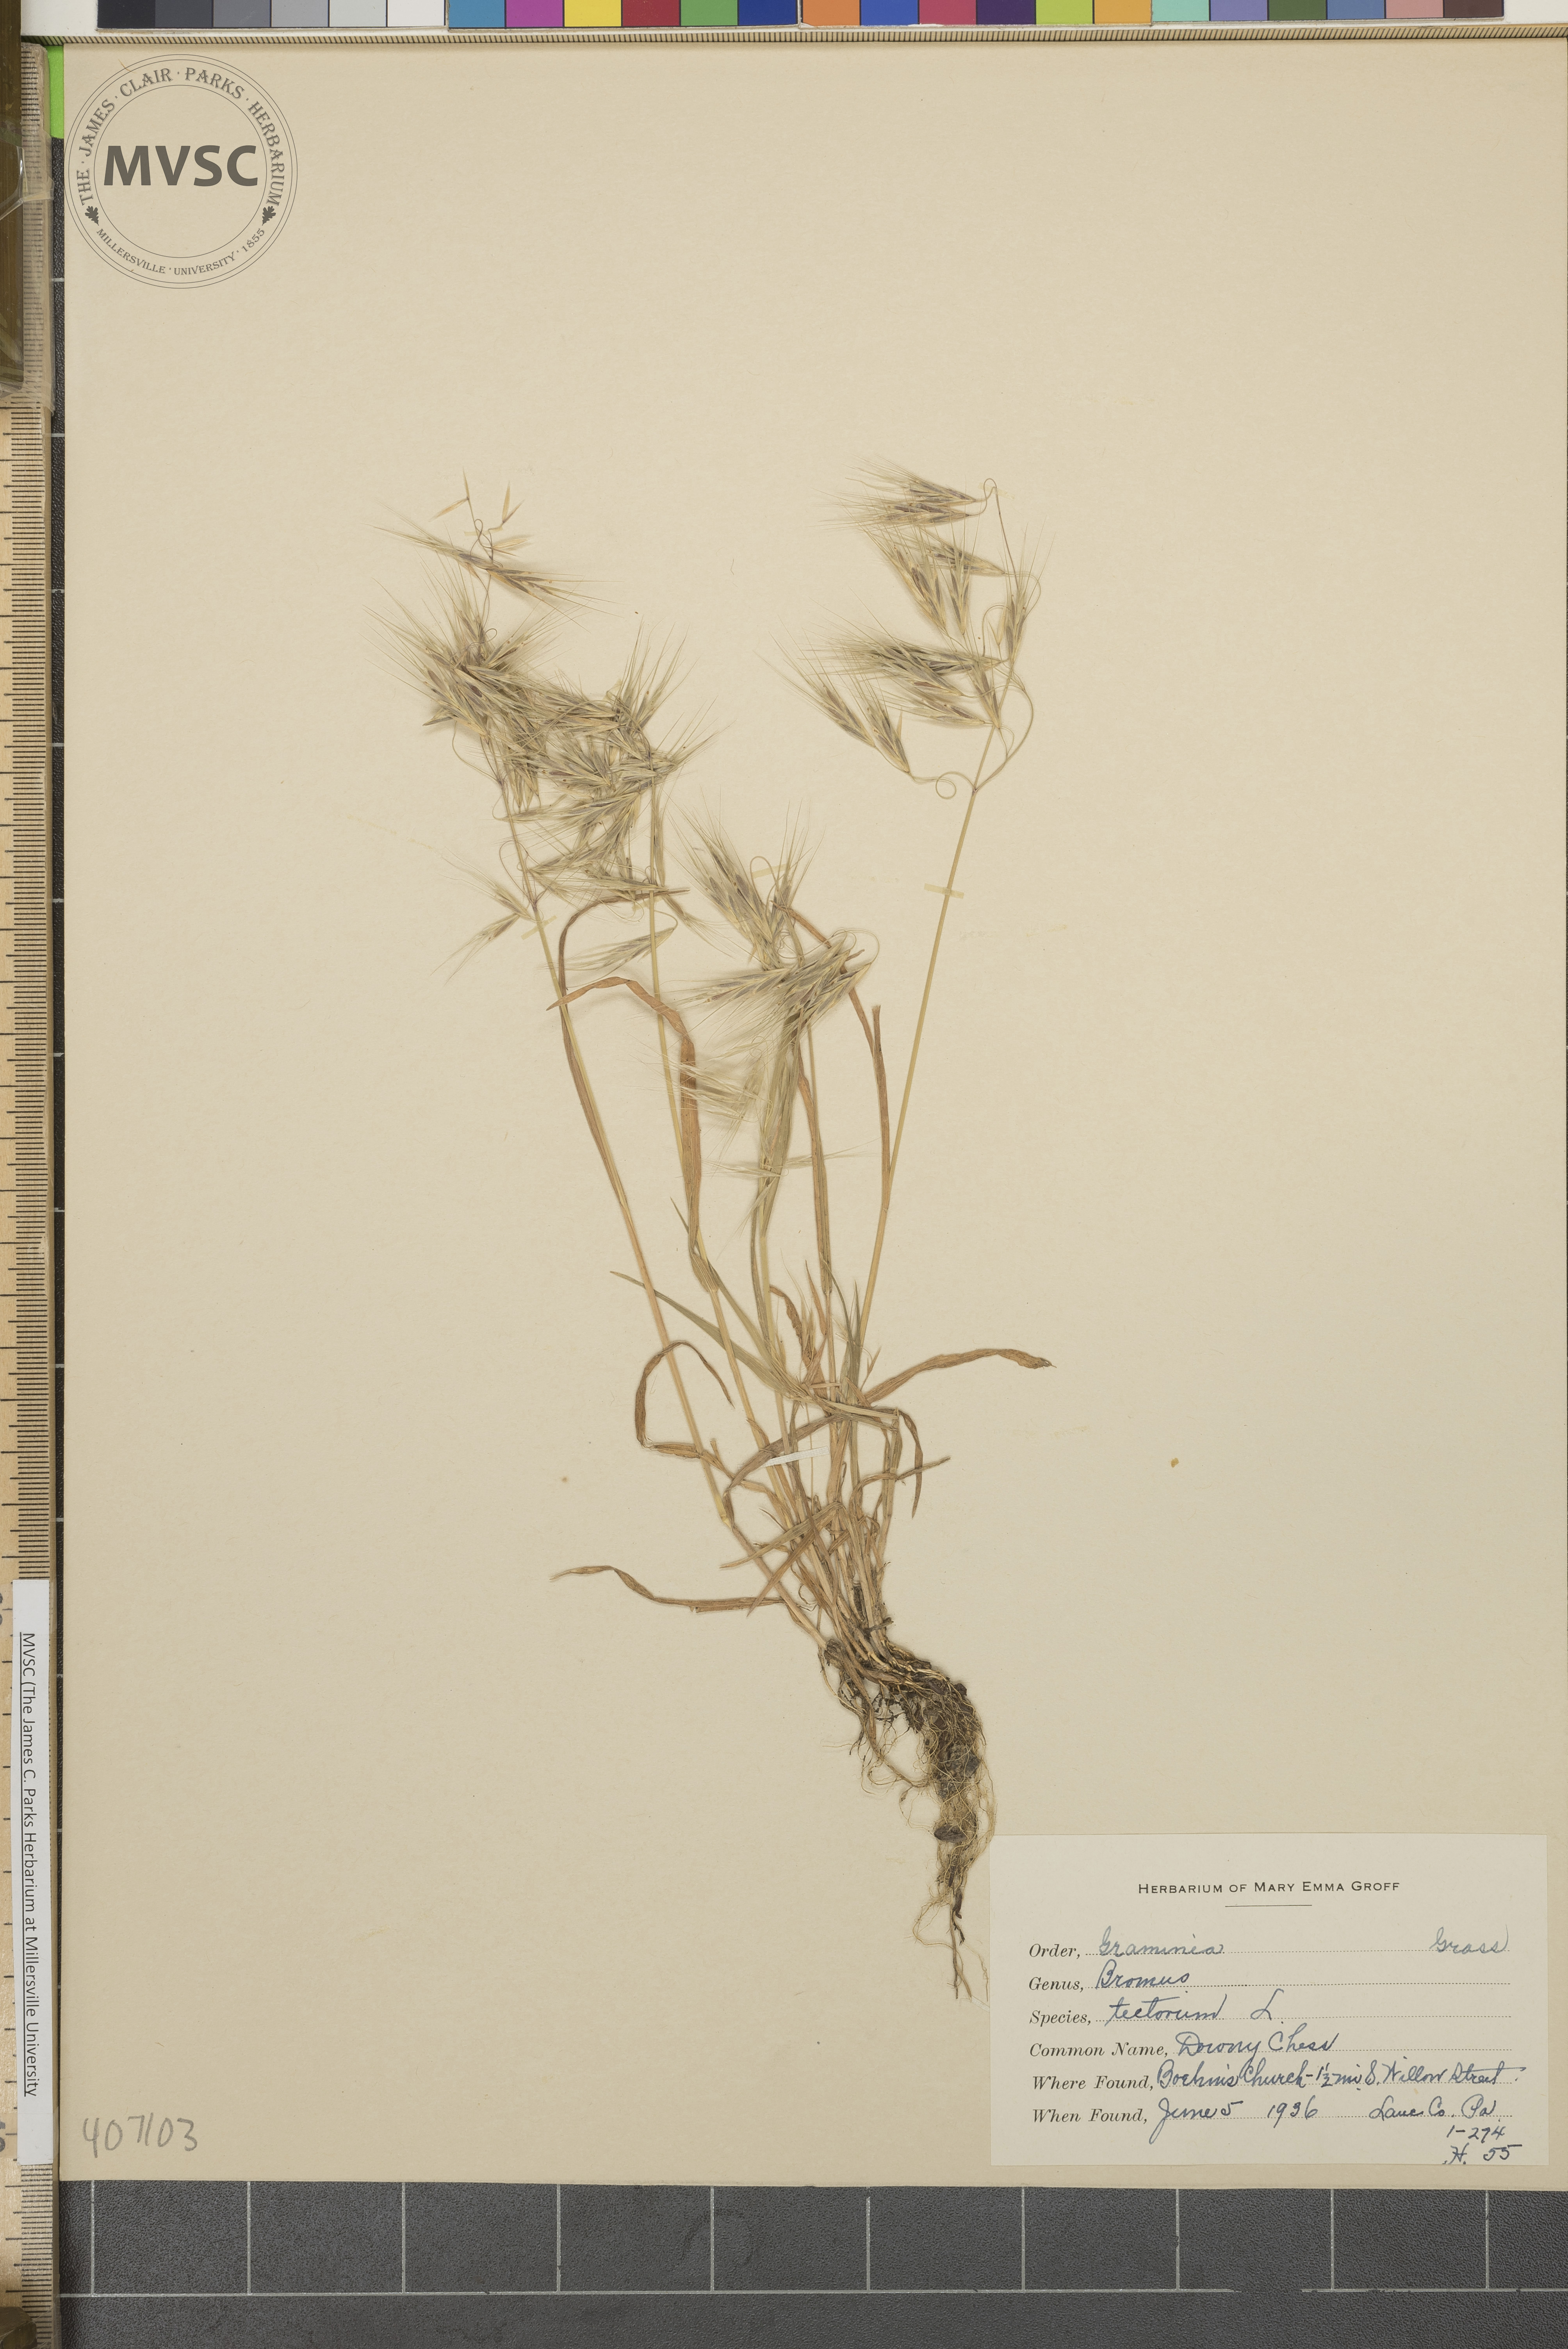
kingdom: Plantae
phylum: Tracheophyta
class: Liliopsida
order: Poales
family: Poaceae
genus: Bromus
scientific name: Bromus tectorum
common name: cheatgrass
